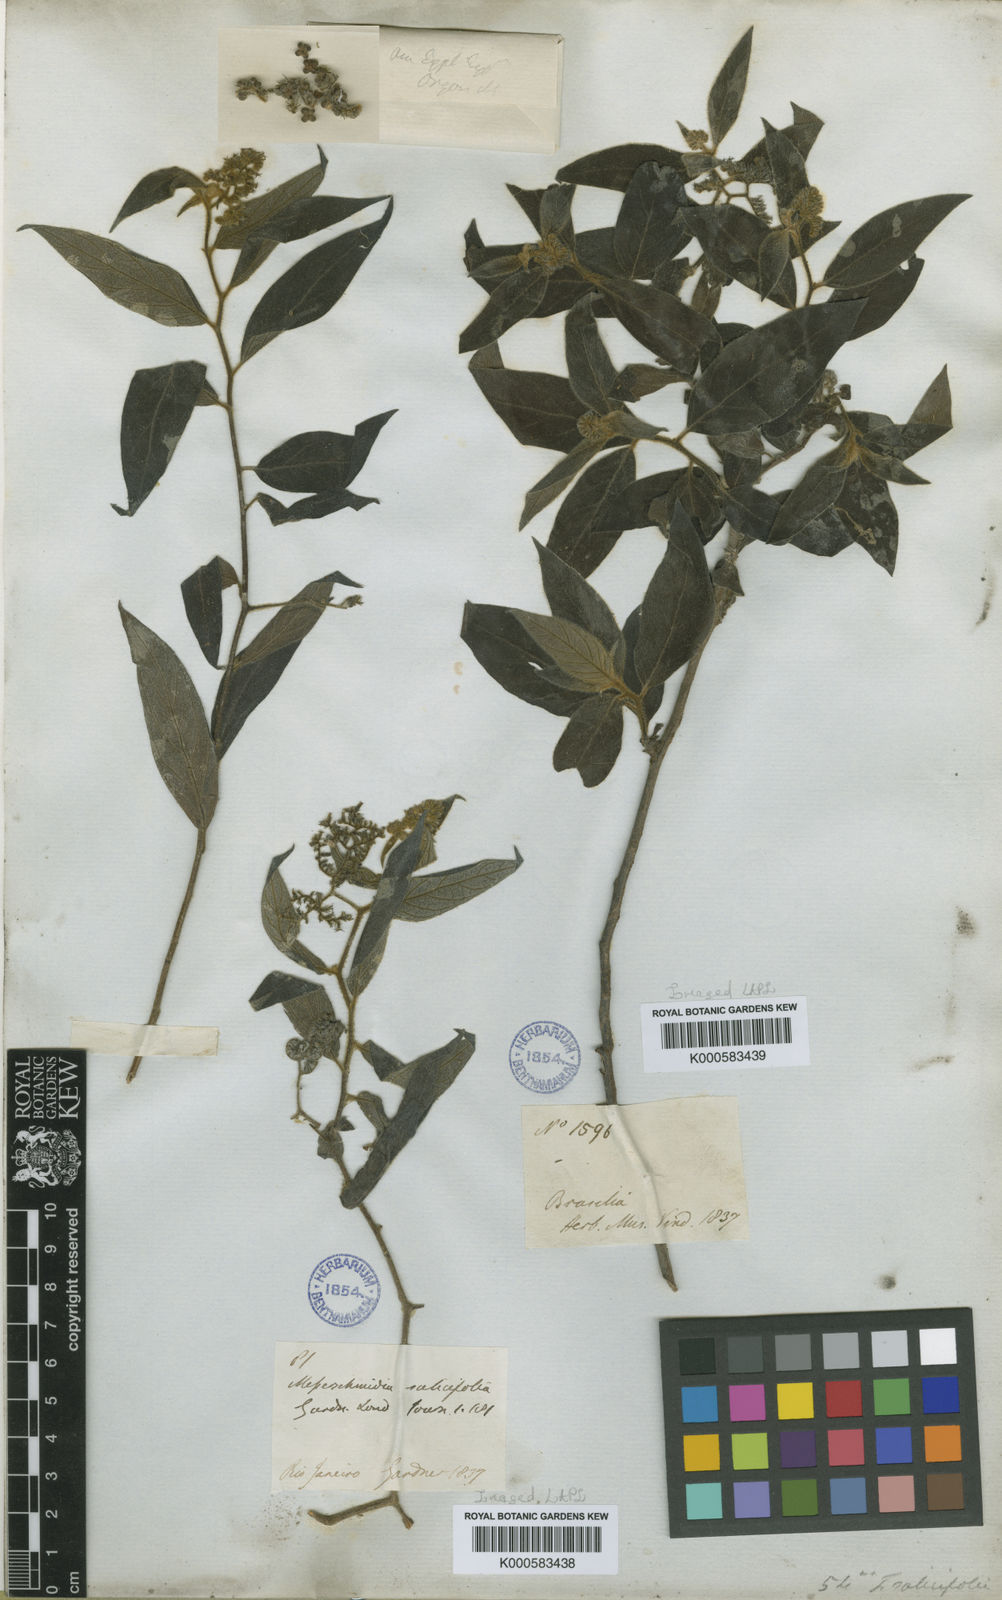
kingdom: Plantae
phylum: Tracheophyta
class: Magnoliopsida
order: Boraginales
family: Heliotropiaceae
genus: Myriopus
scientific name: Myriopus salicifolius
